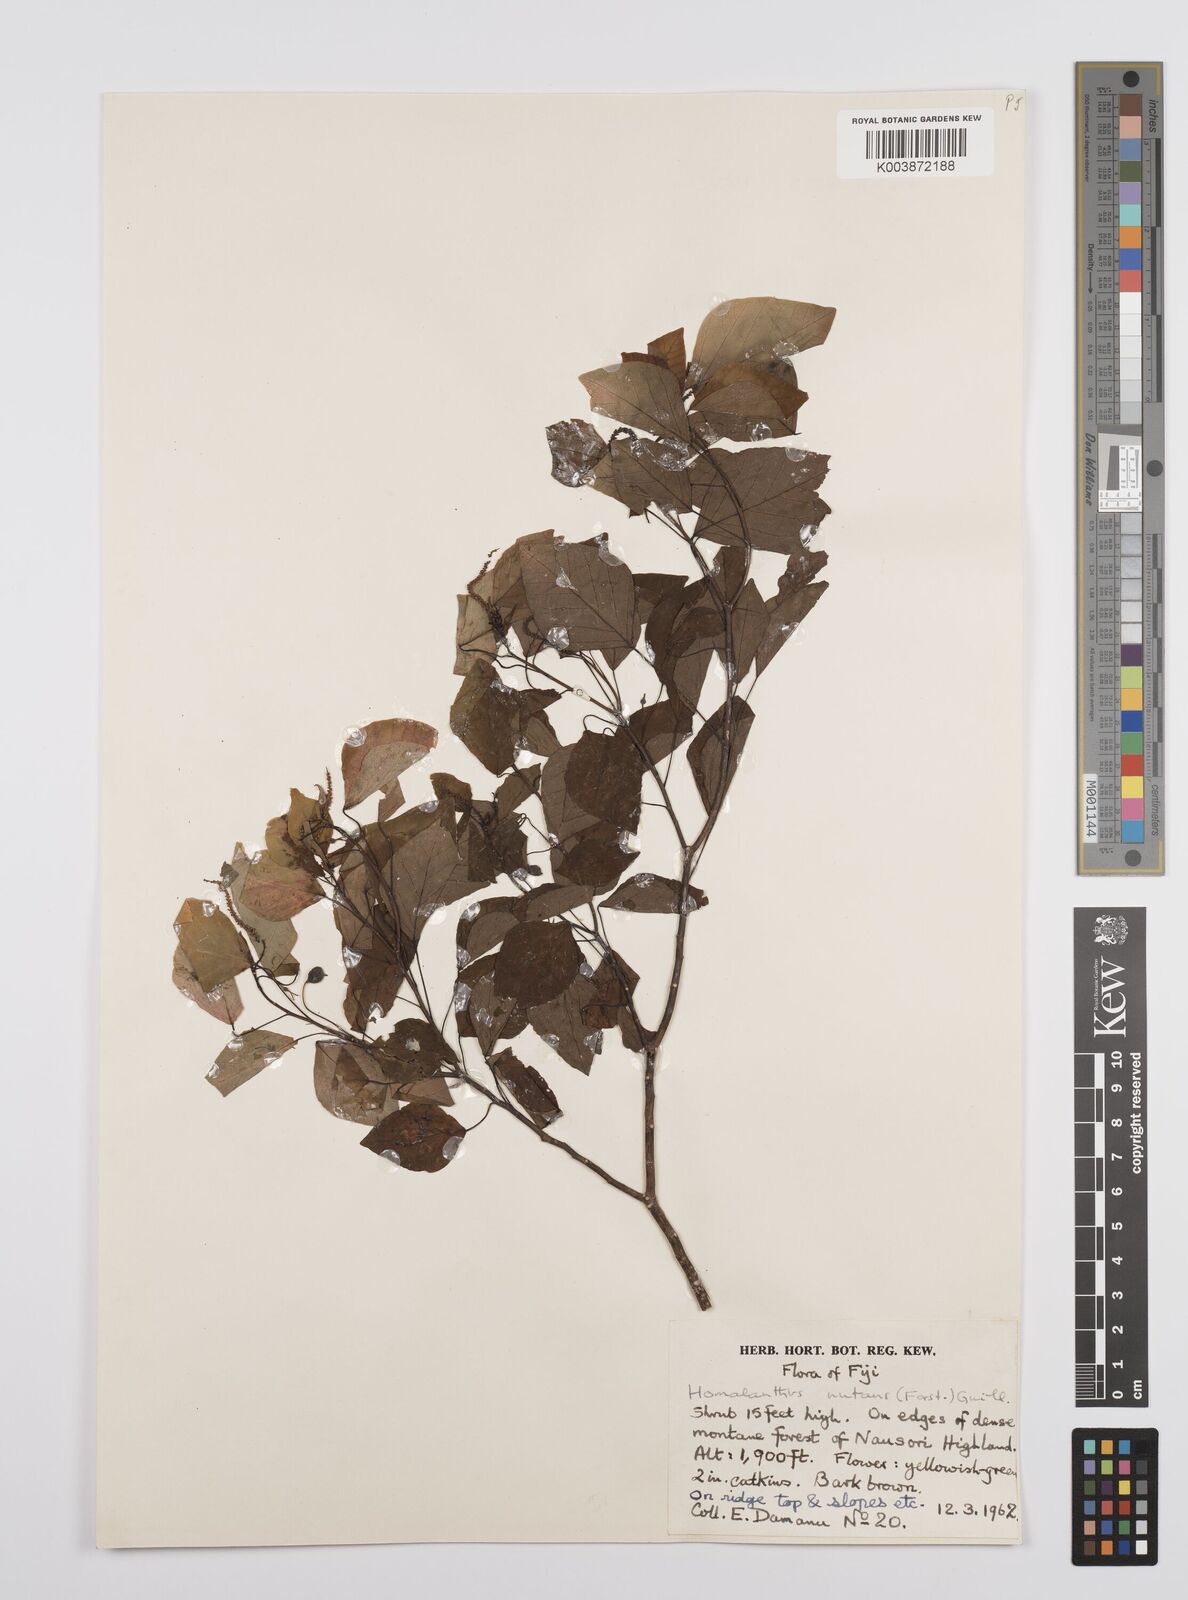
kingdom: Plantae
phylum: Tracheophyta
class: Magnoliopsida
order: Malpighiales
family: Euphorbiaceae
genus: Homalanthus
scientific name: Homalanthus nutans
